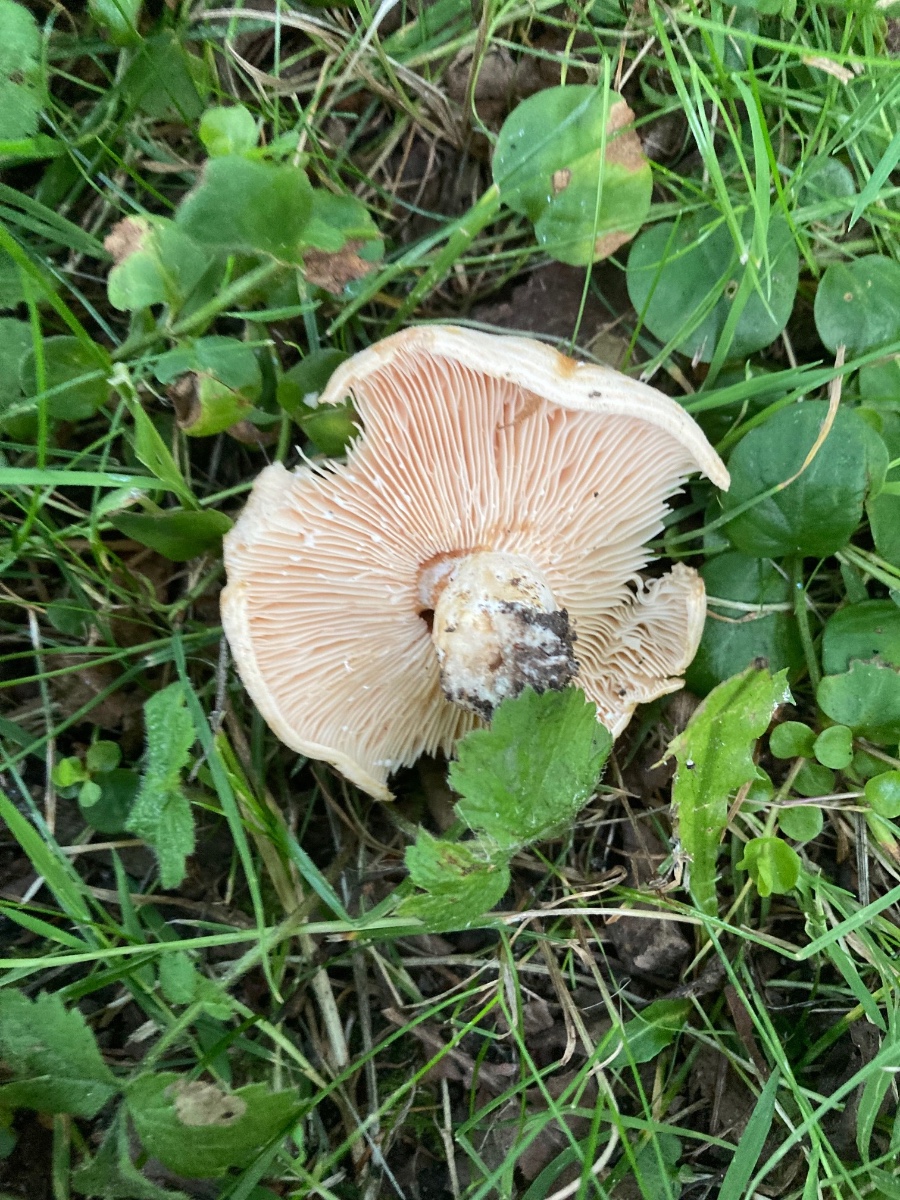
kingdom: Fungi
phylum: Basidiomycota
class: Agaricomycetes
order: Russulales
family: Russulaceae
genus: Lactarius
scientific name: Lactarius acerrimus
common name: brændende mælkehat
